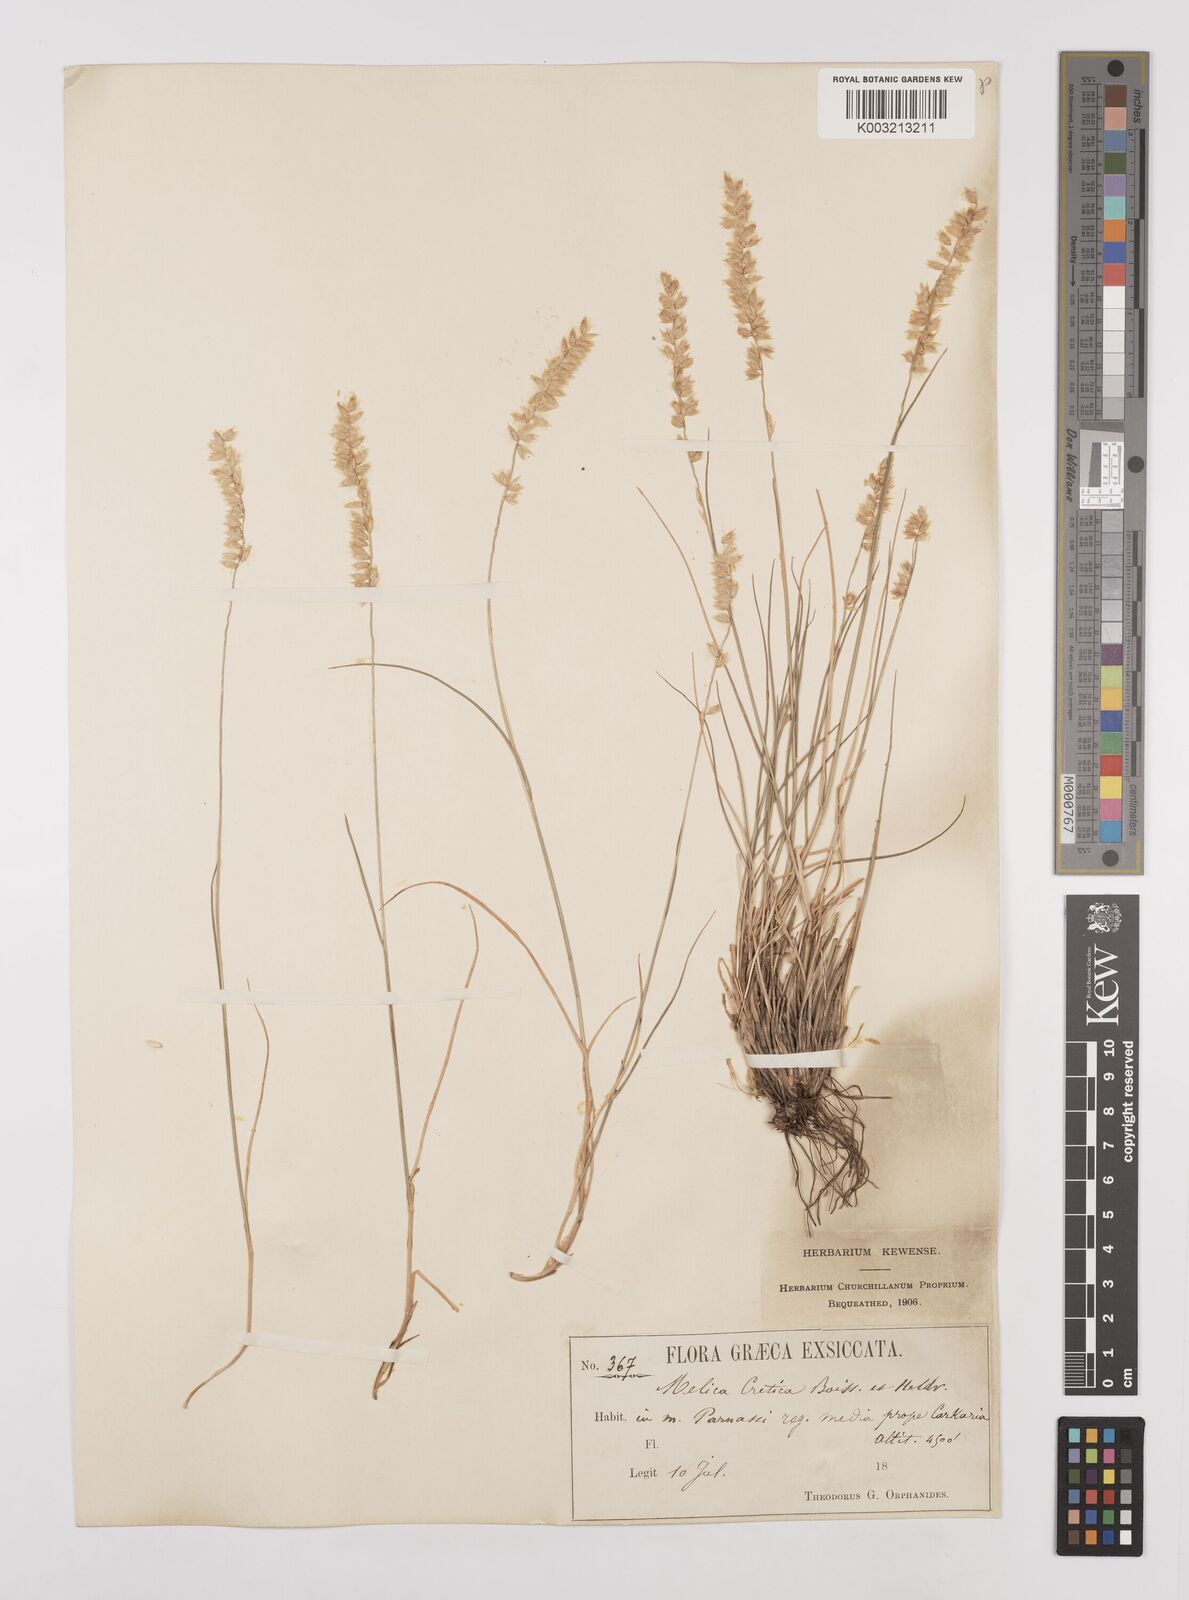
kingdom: Plantae
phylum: Tracheophyta
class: Liliopsida
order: Poales
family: Poaceae
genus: Melica
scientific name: Melica ciliata
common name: Hairy melicgrass
